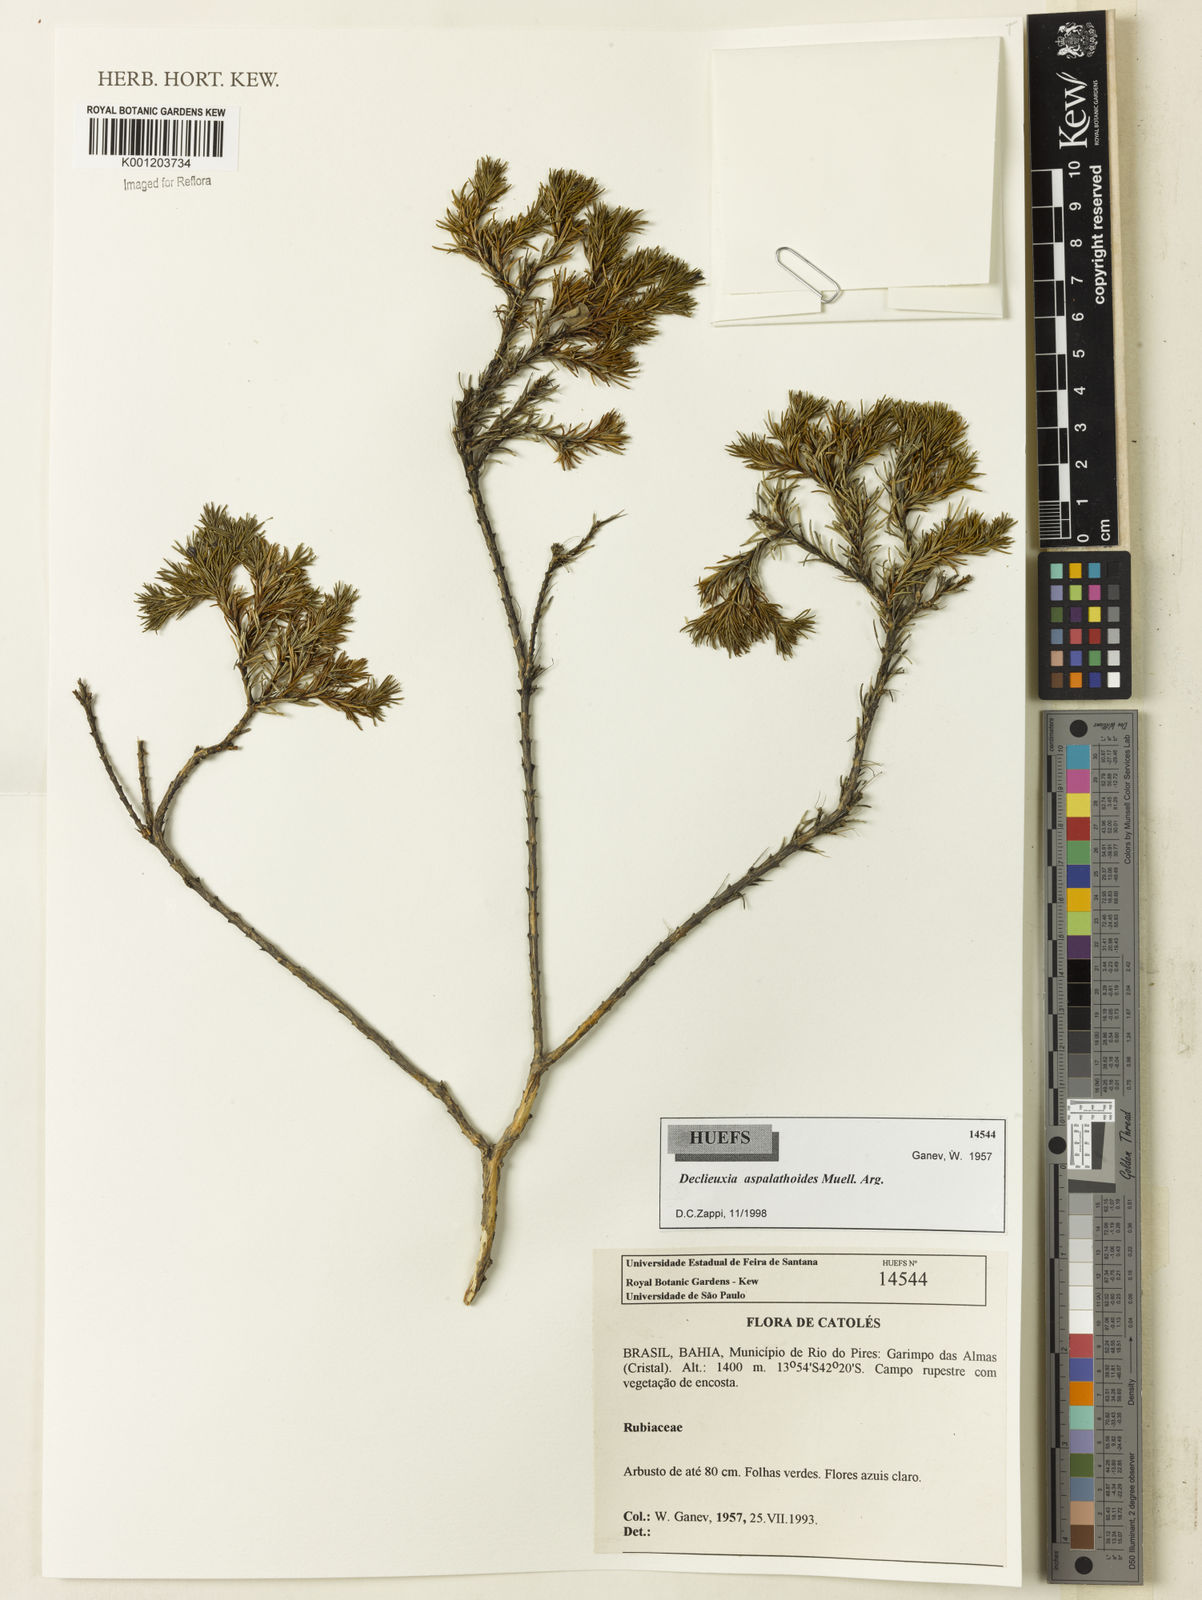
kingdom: Plantae
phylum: Tracheophyta
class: Magnoliopsida
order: Gentianales
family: Rubiaceae
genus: Declieuxia
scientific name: Declieuxia
